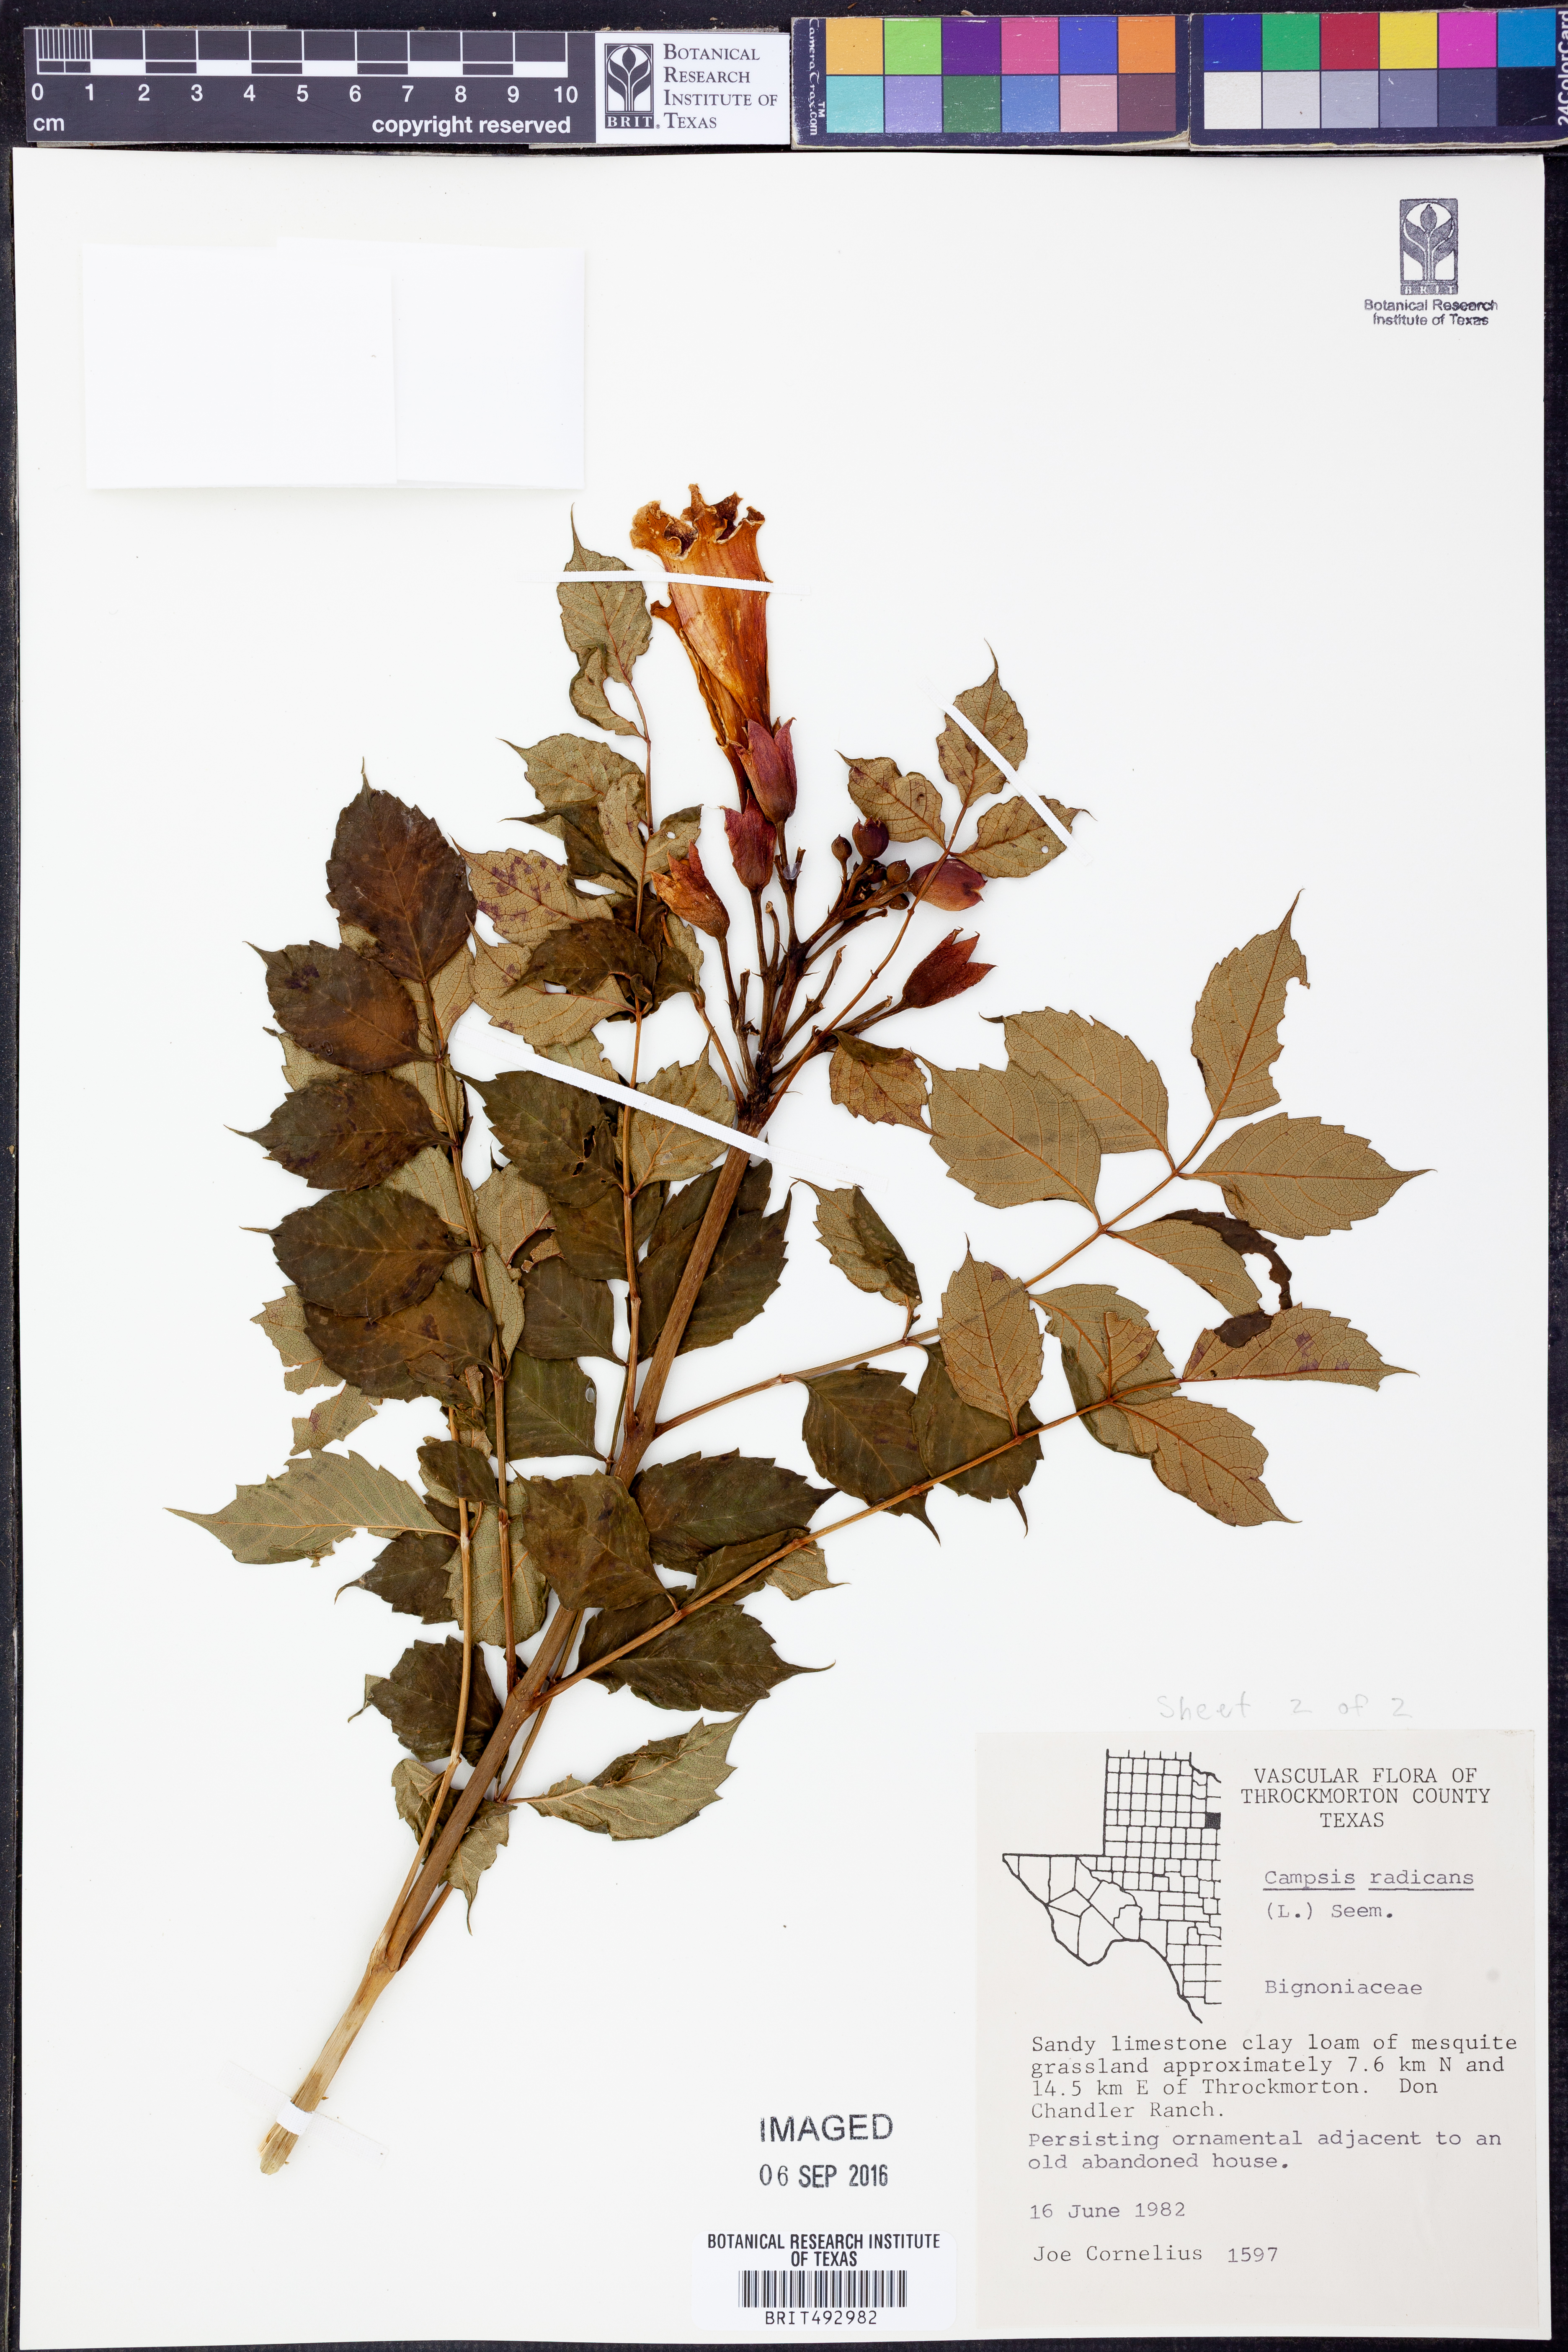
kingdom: Plantae
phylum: Tracheophyta
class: Magnoliopsida
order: Lamiales
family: Bignoniaceae
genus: Campsis
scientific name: Campsis radicans
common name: Trumpet-creeper
